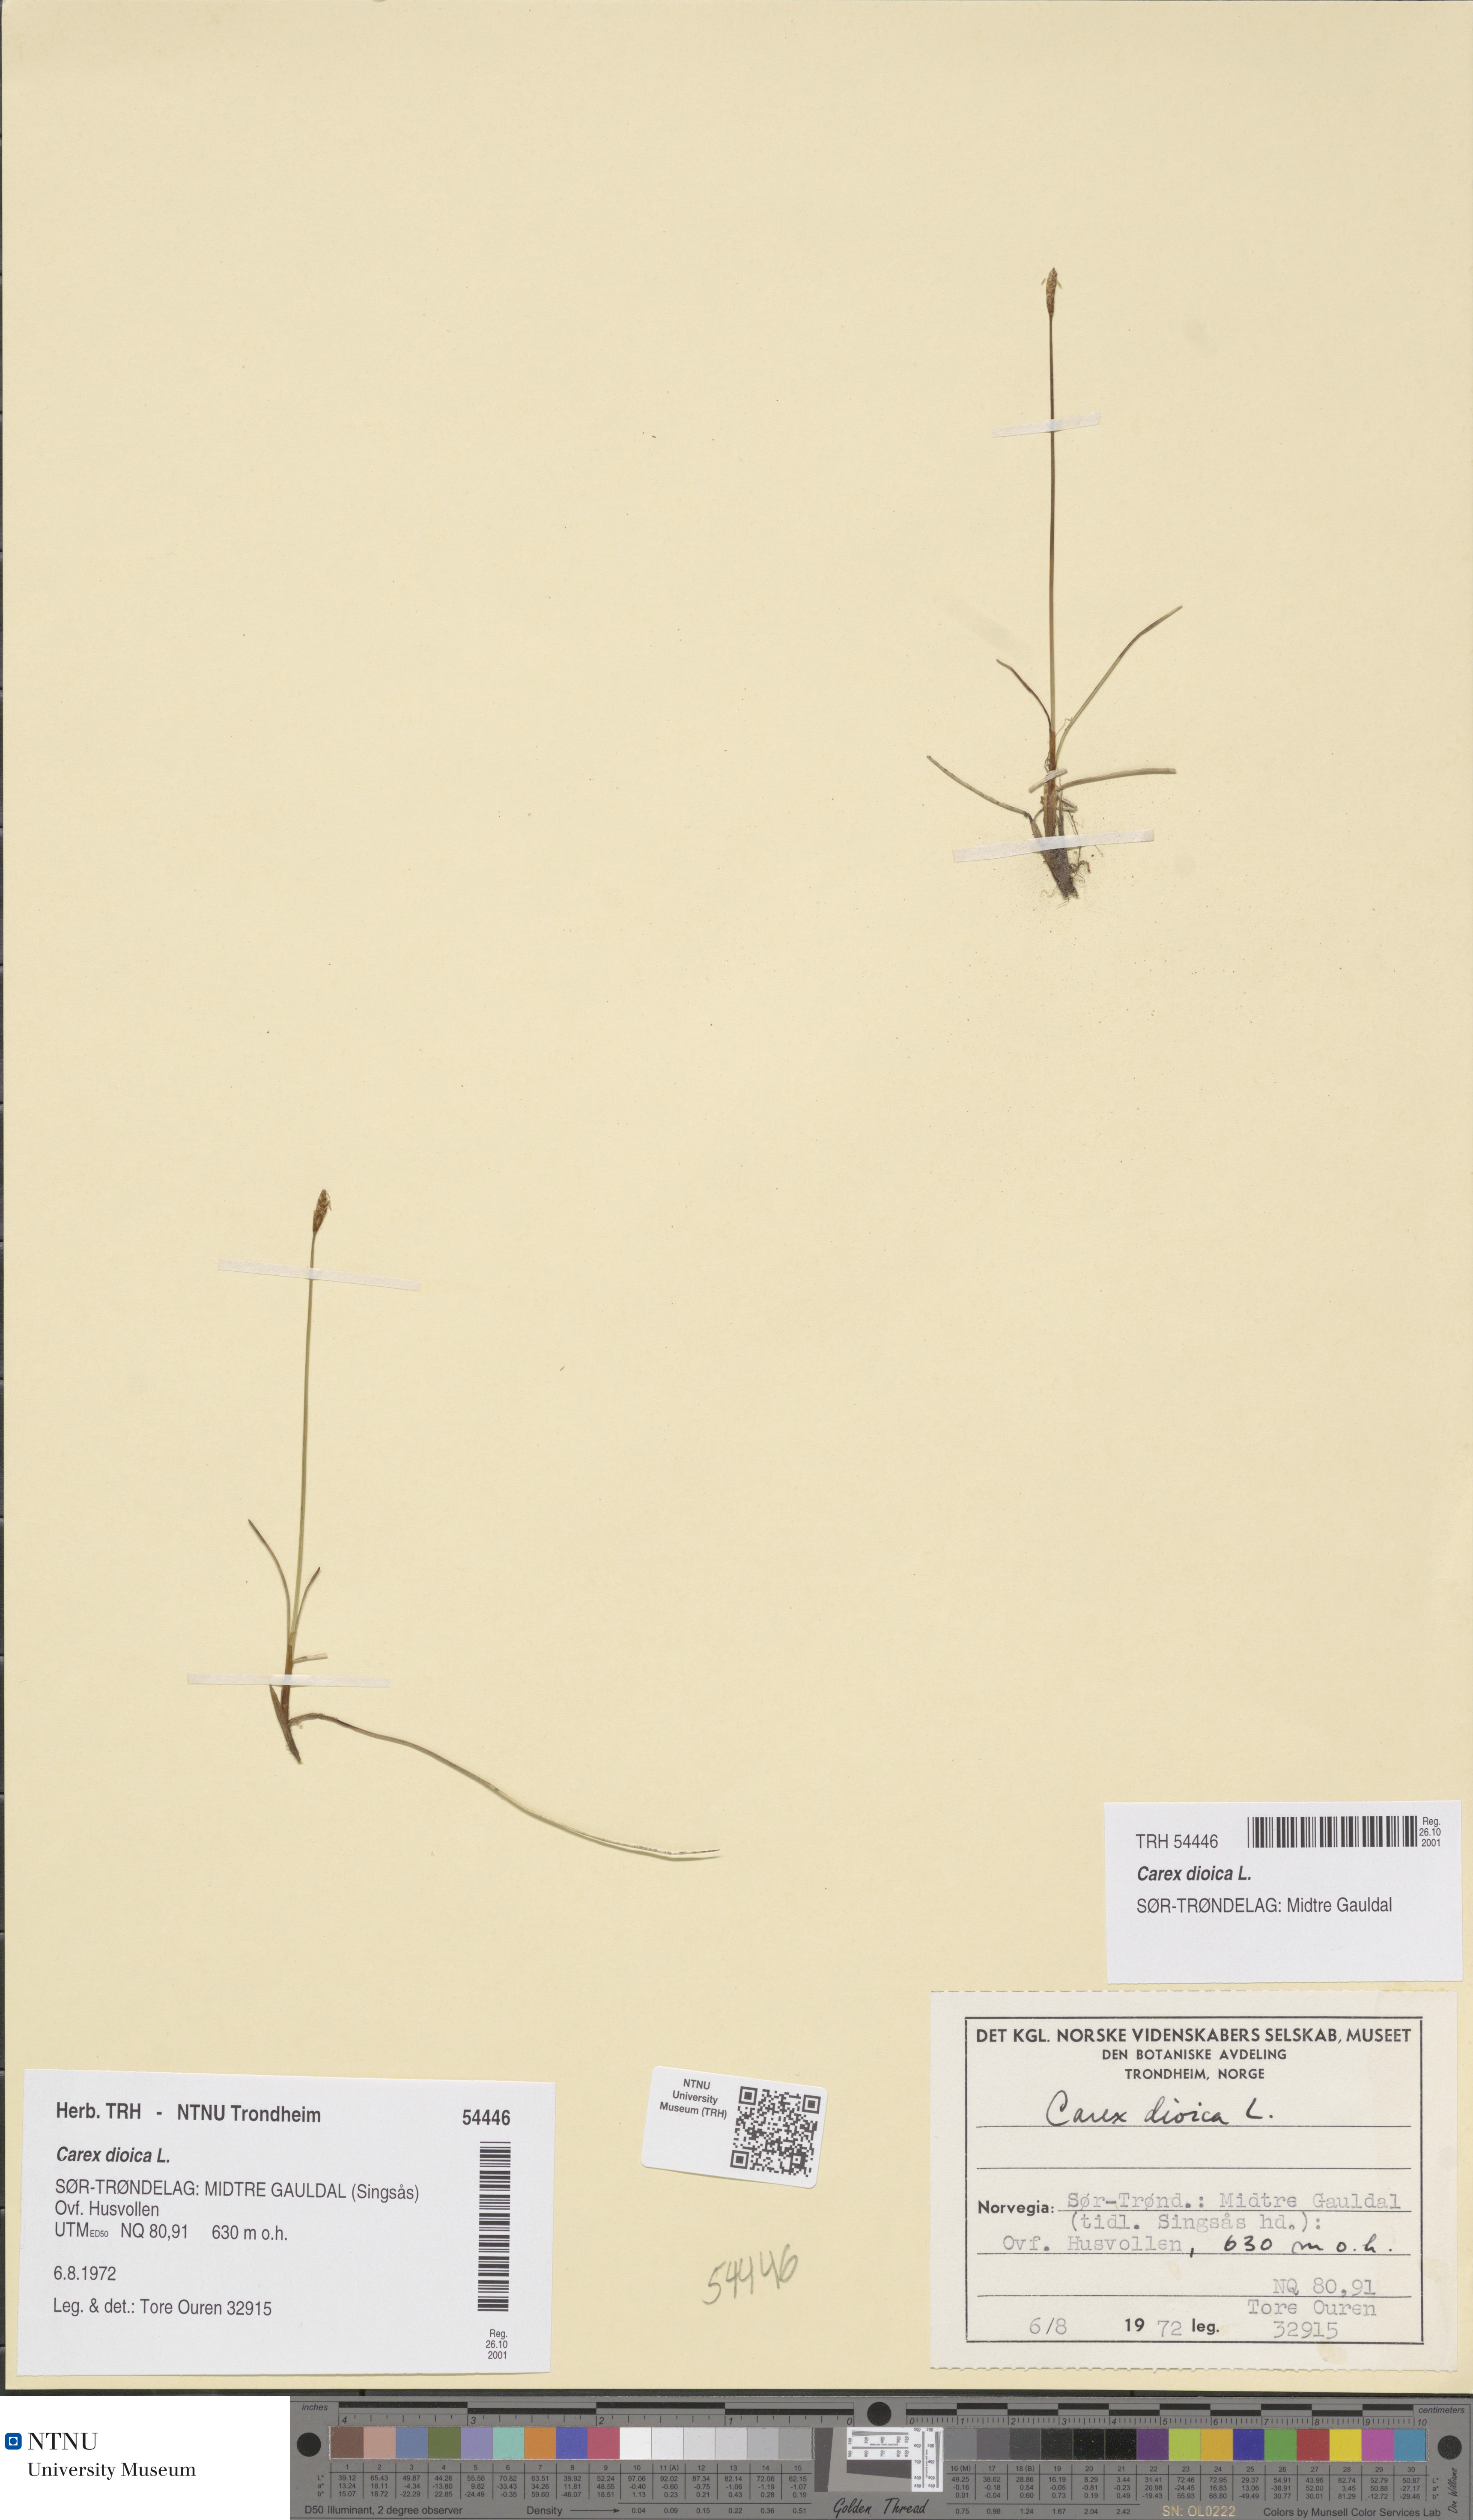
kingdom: Plantae
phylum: Tracheophyta
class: Liliopsida
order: Poales
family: Cyperaceae
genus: Carex
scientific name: Carex dioica
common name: Dioecious sedge
